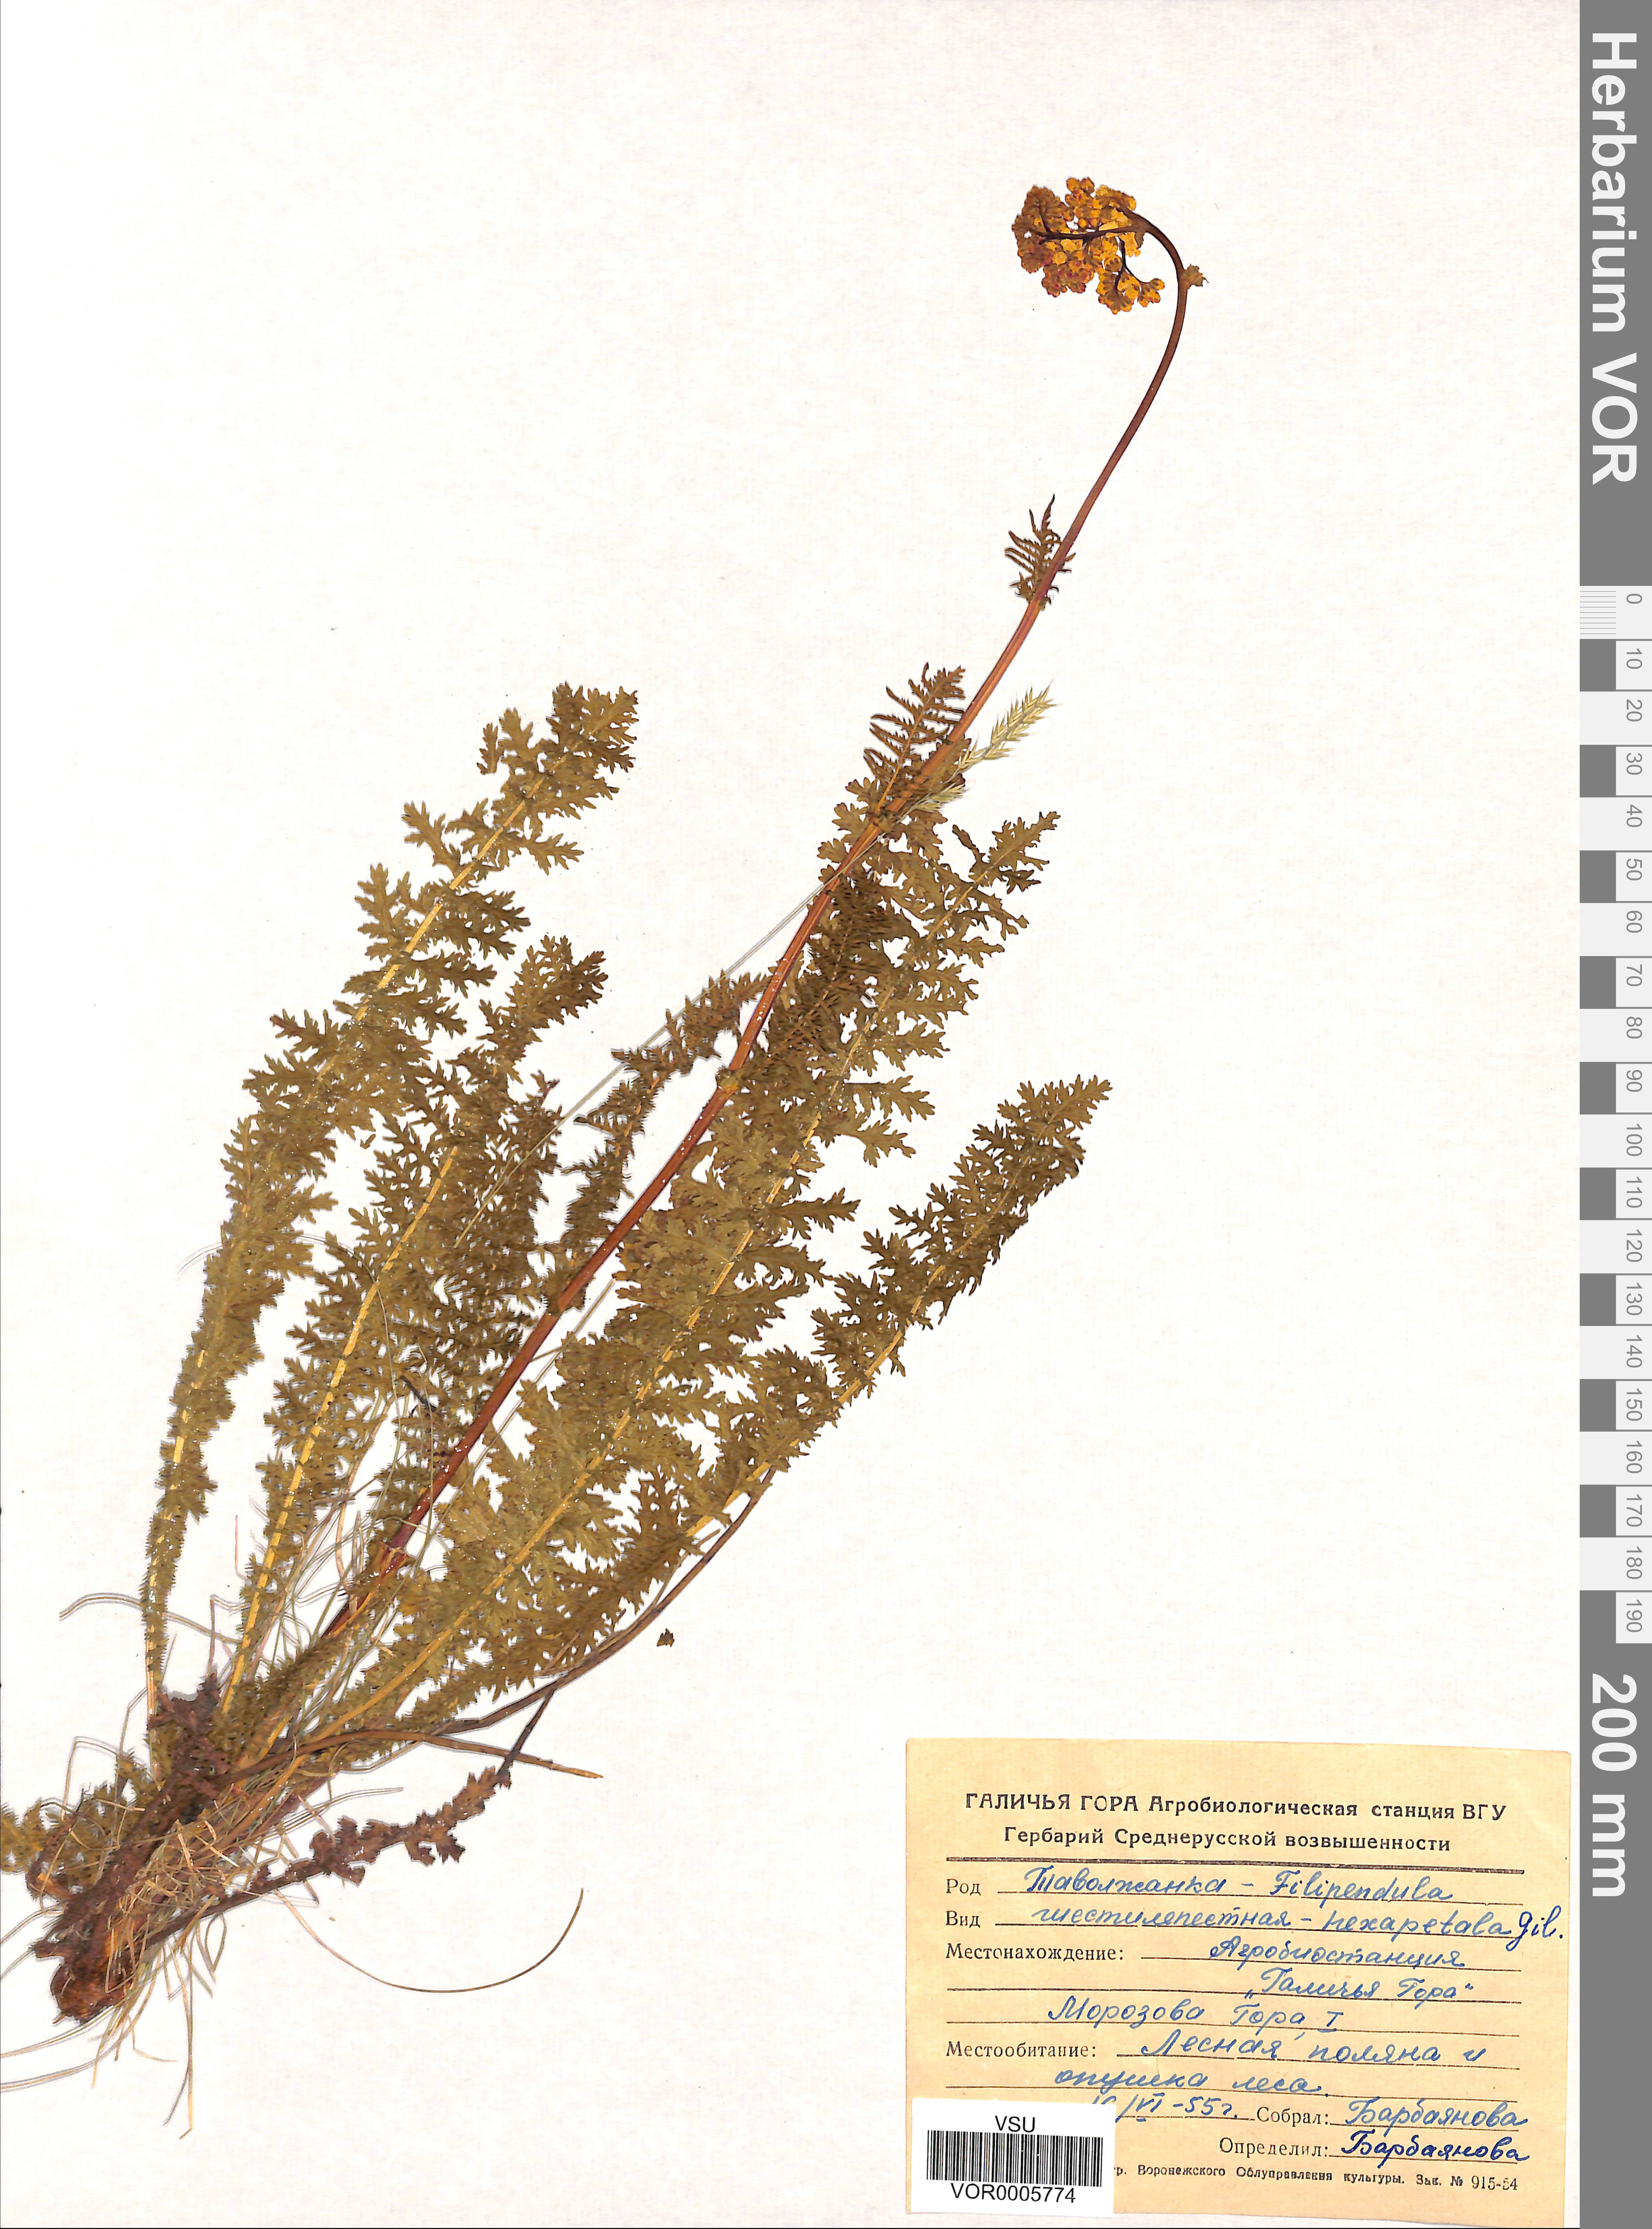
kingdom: Plantae
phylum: Tracheophyta
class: Magnoliopsida
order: Rosales
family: Rosaceae
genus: Filipendula
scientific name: Filipendula vulgaris
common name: Dropwort
